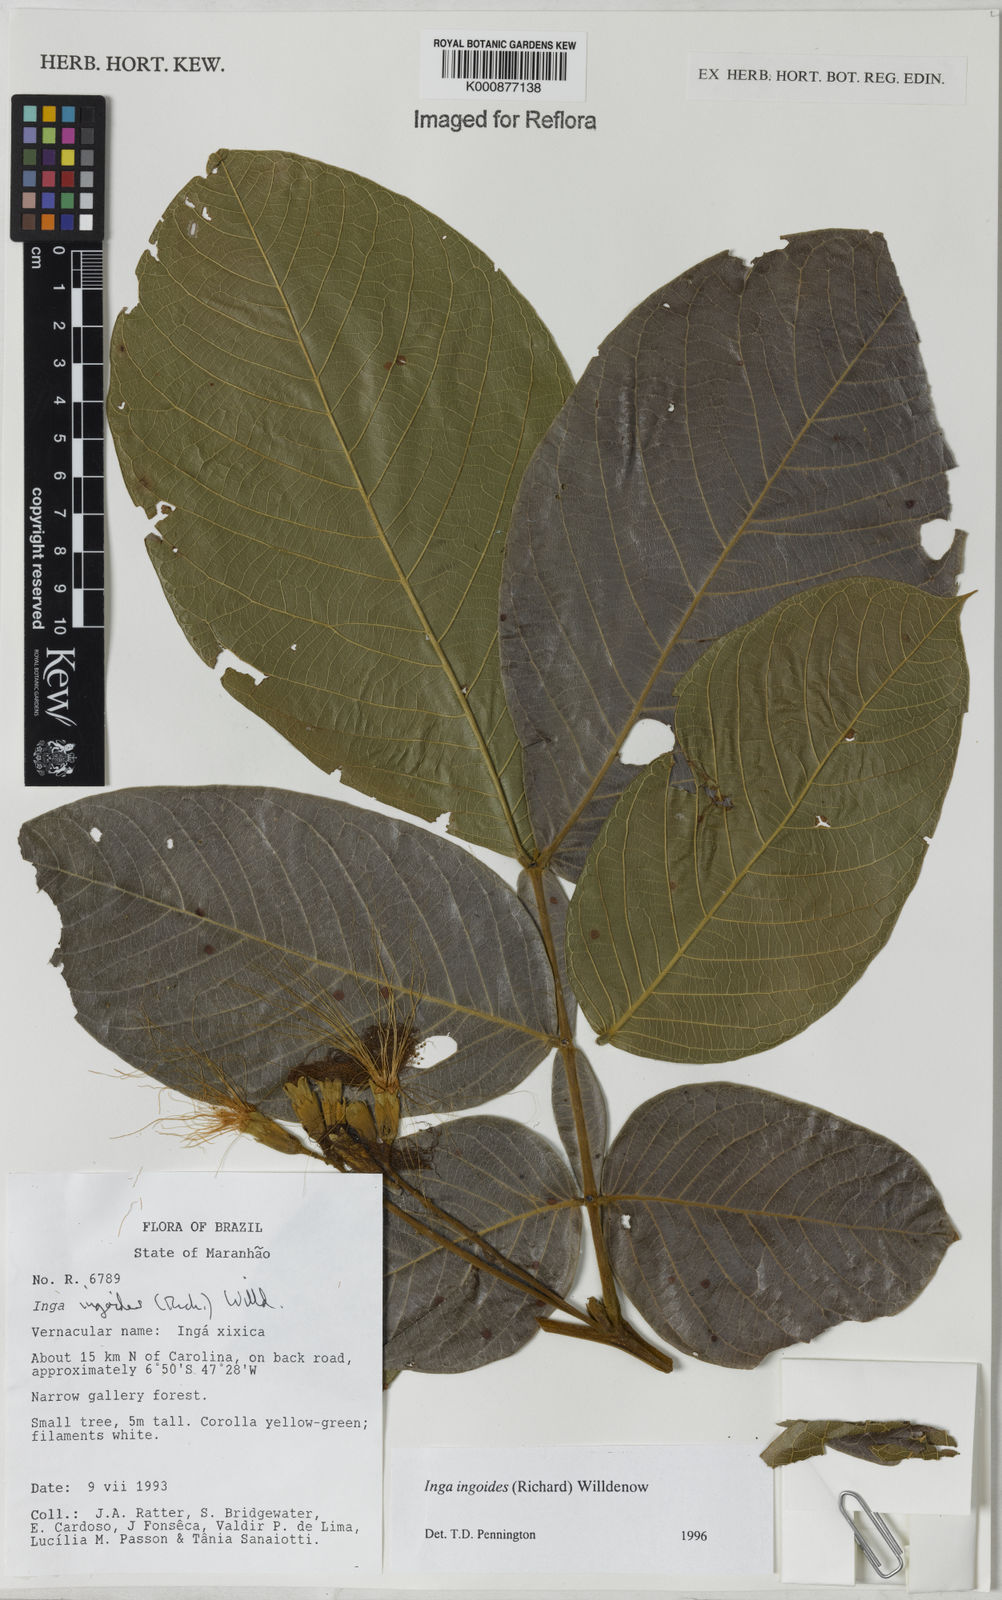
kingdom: Plantae
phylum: Tracheophyta
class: Magnoliopsida
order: Fabales
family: Fabaceae
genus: Inga
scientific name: Inga ingoides
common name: Spanish ash
